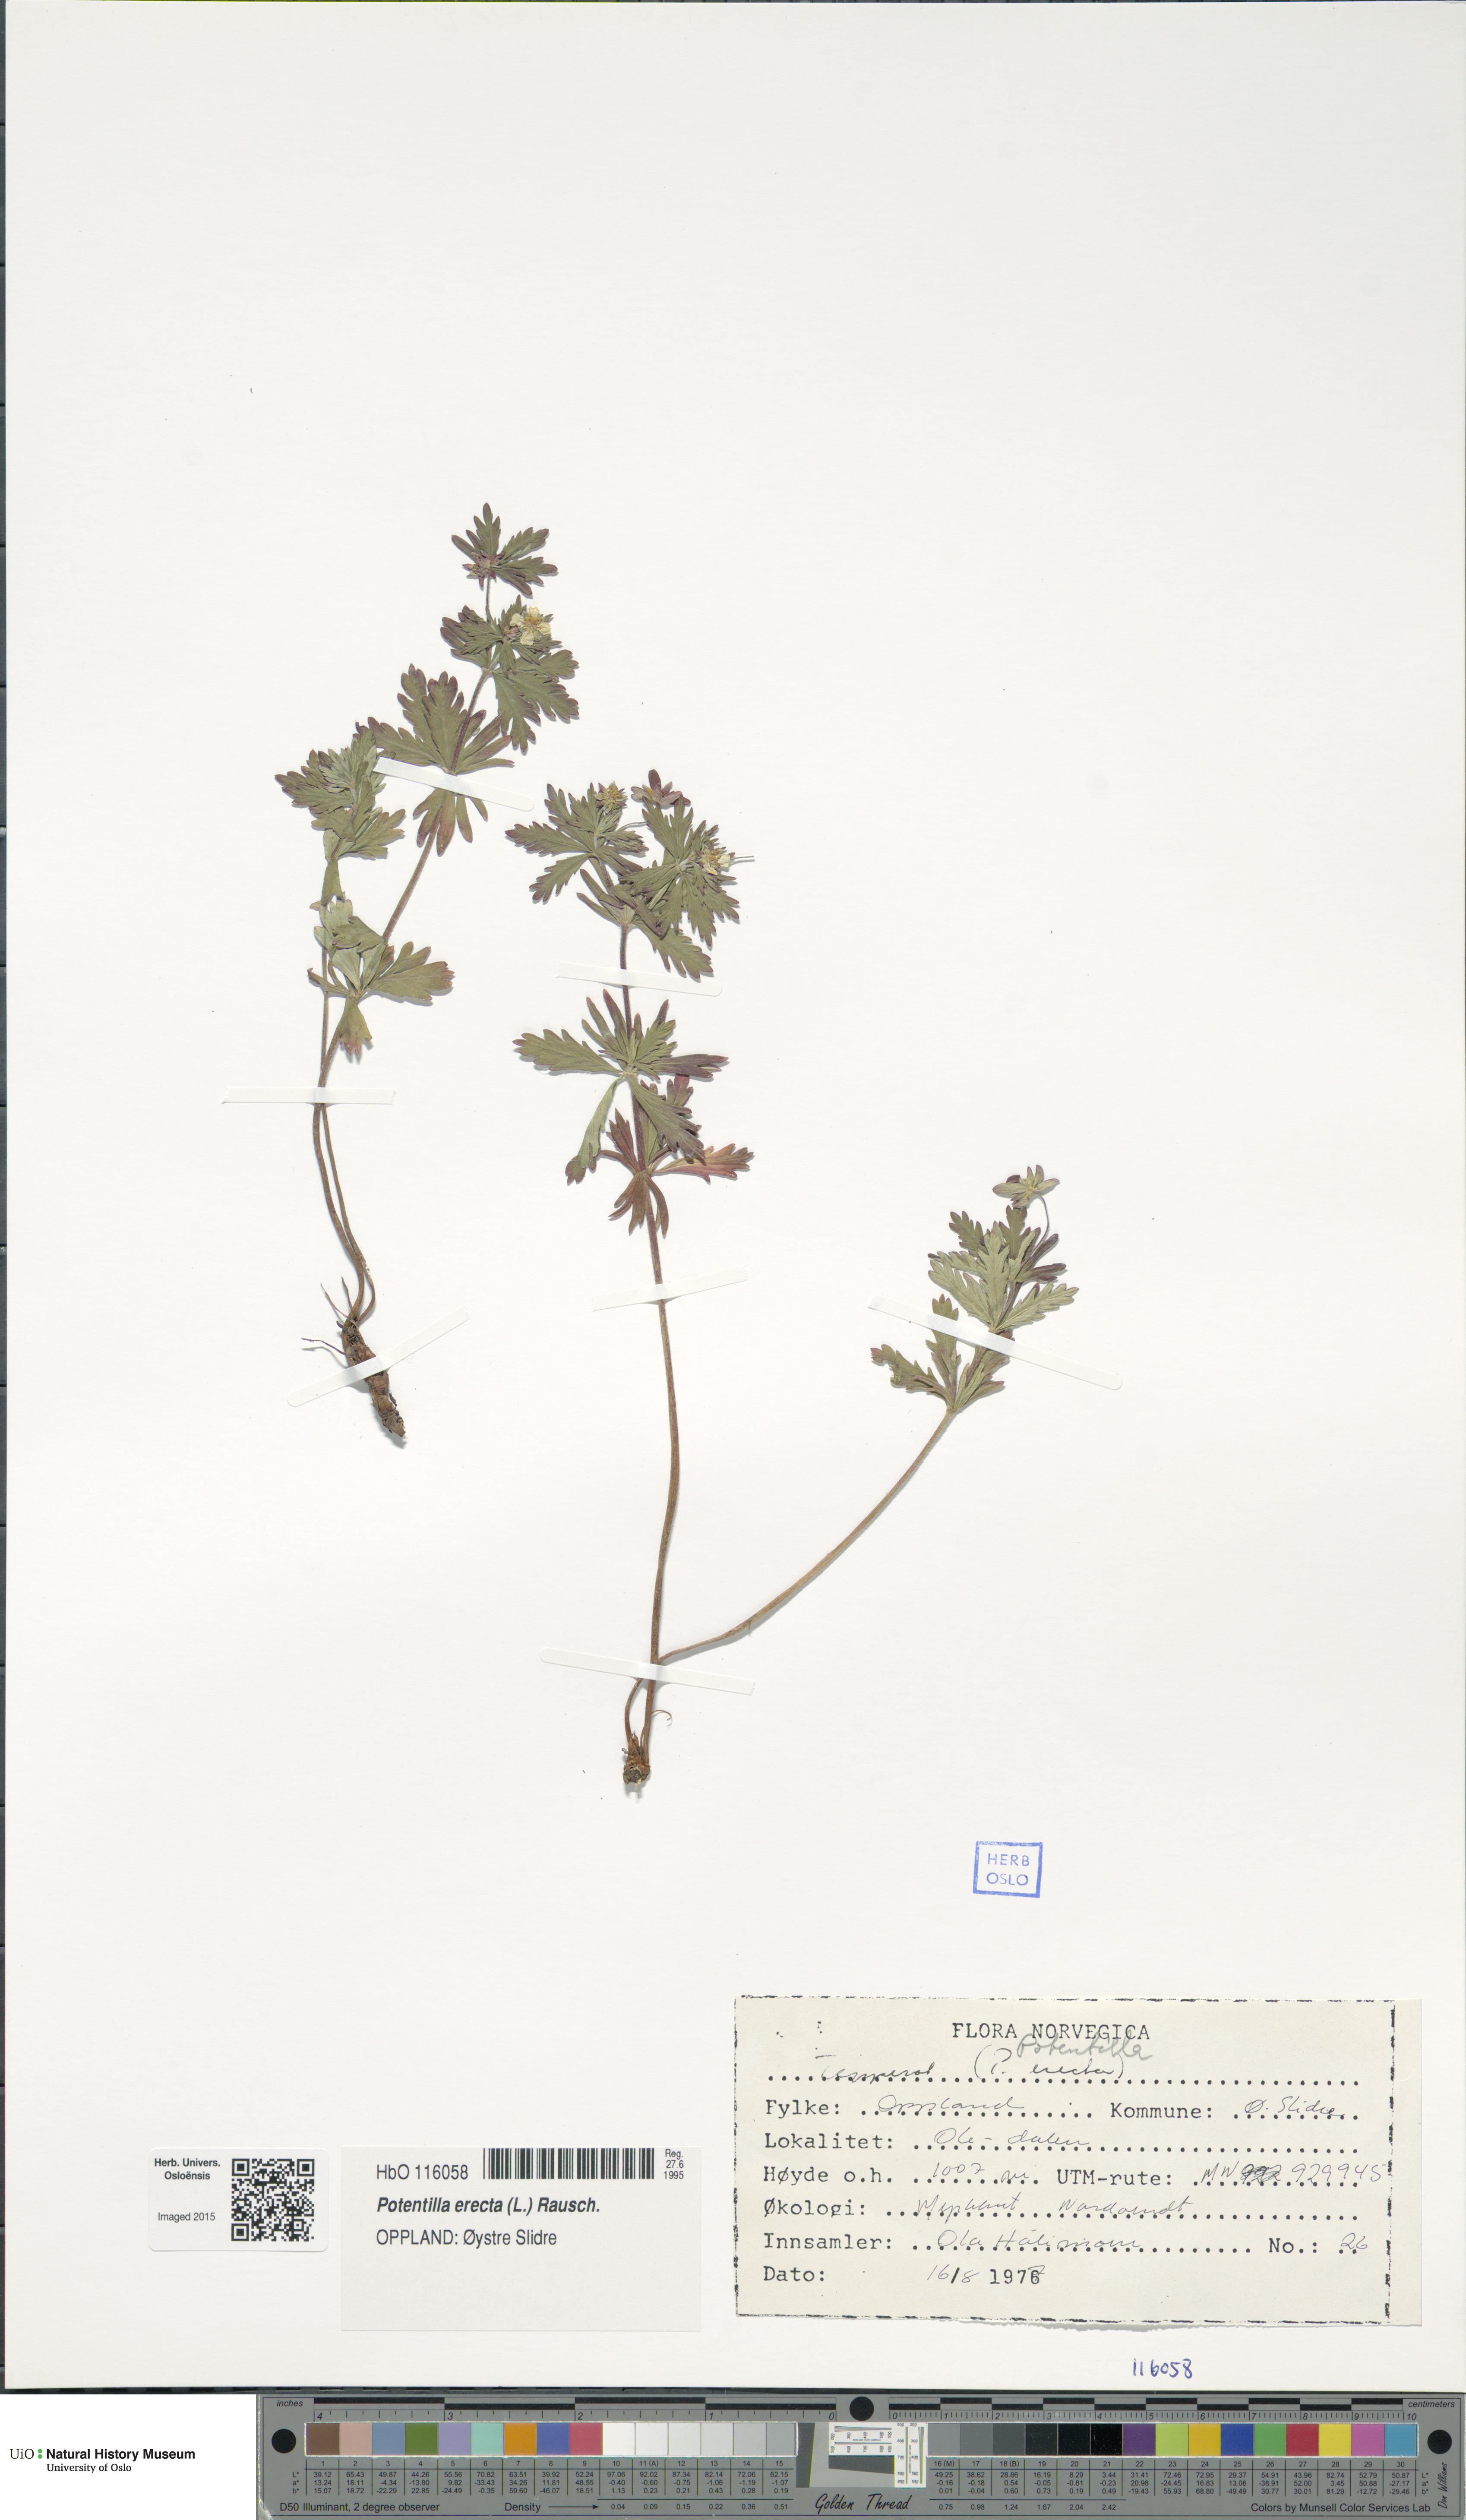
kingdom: Plantae
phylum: Tracheophyta
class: Magnoliopsida
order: Rosales
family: Rosaceae
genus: Potentilla
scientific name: Potentilla erecta
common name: Tormentil
